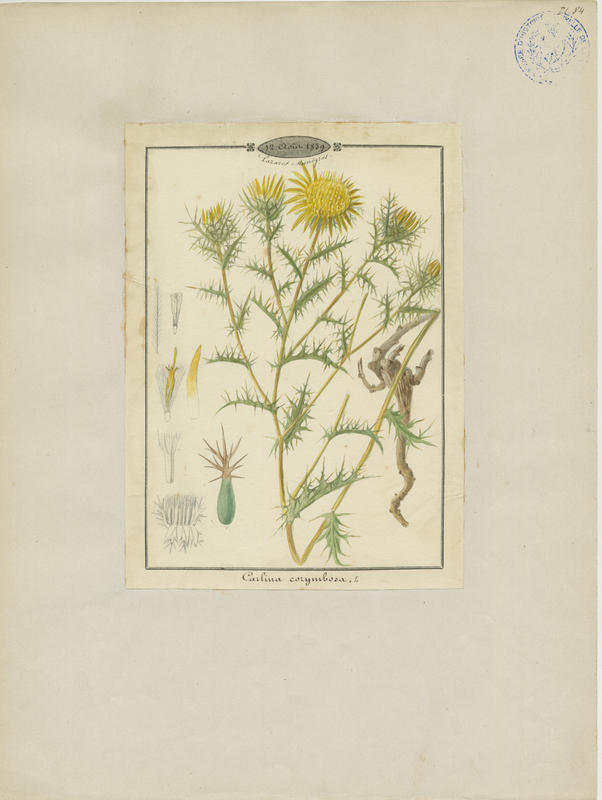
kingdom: Plantae
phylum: Tracheophyta
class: Magnoliopsida
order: Asterales
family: Asteraceae
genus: Carlina
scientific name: Carlina corymbosa
